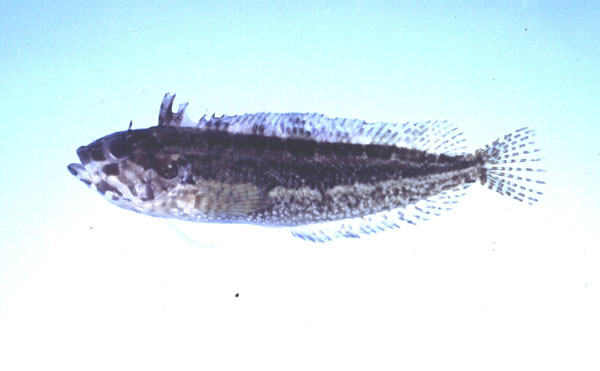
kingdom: Animalia
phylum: Chordata
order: Perciformes
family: Clinidae
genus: Clinus
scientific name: Clinus superciliosus
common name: Super klipfish
